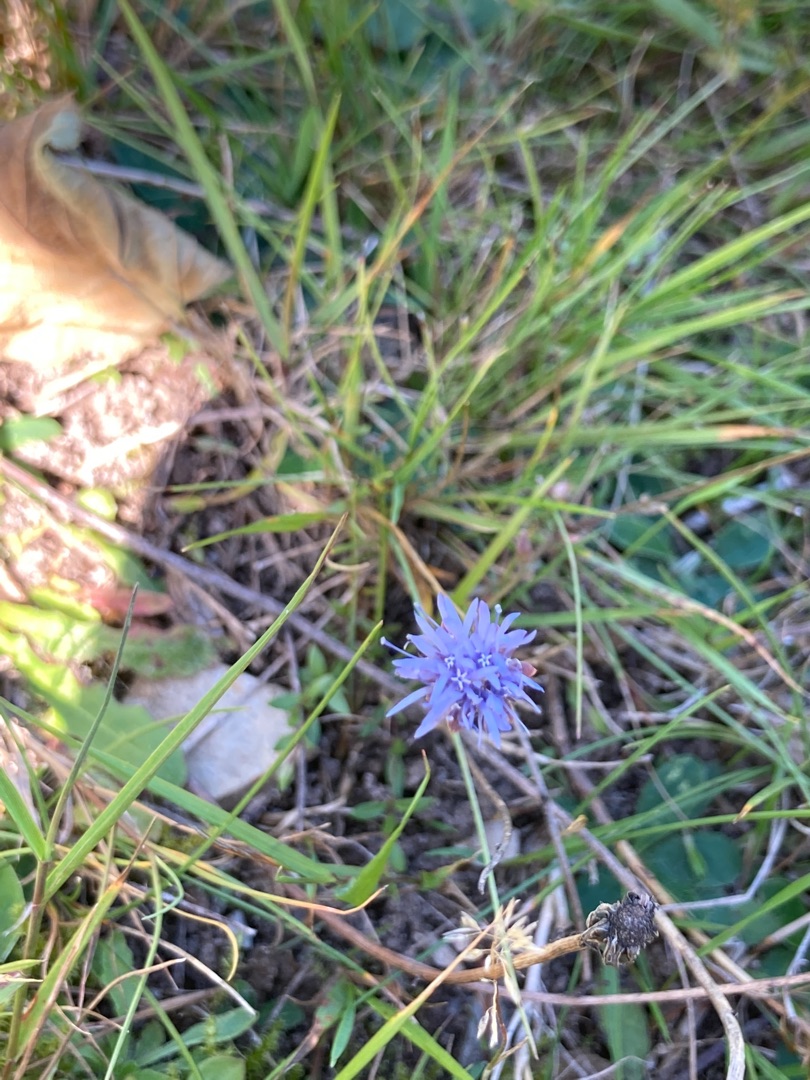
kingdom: Plantae
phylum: Tracheophyta
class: Magnoliopsida
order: Asterales
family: Campanulaceae
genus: Jasione
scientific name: Jasione montana
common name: Blåmunke
